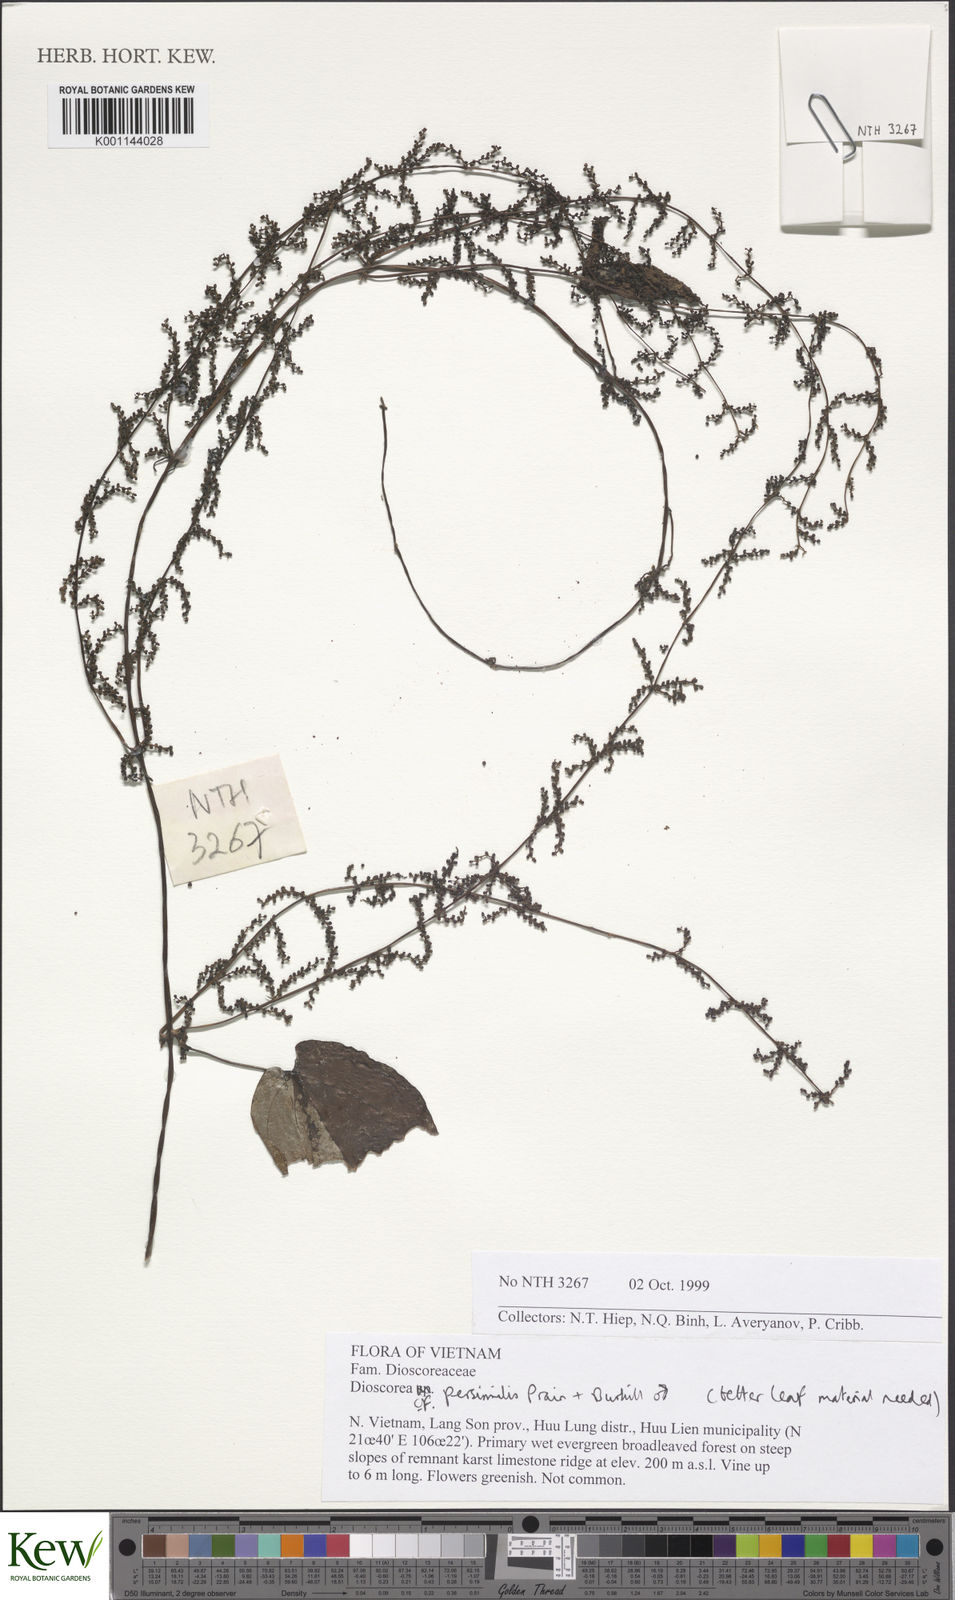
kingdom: Plantae
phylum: Tracheophyta
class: Liliopsida
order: Dioscoreales
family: Dioscoreaceae
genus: Dioscorea
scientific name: Dioscorea
